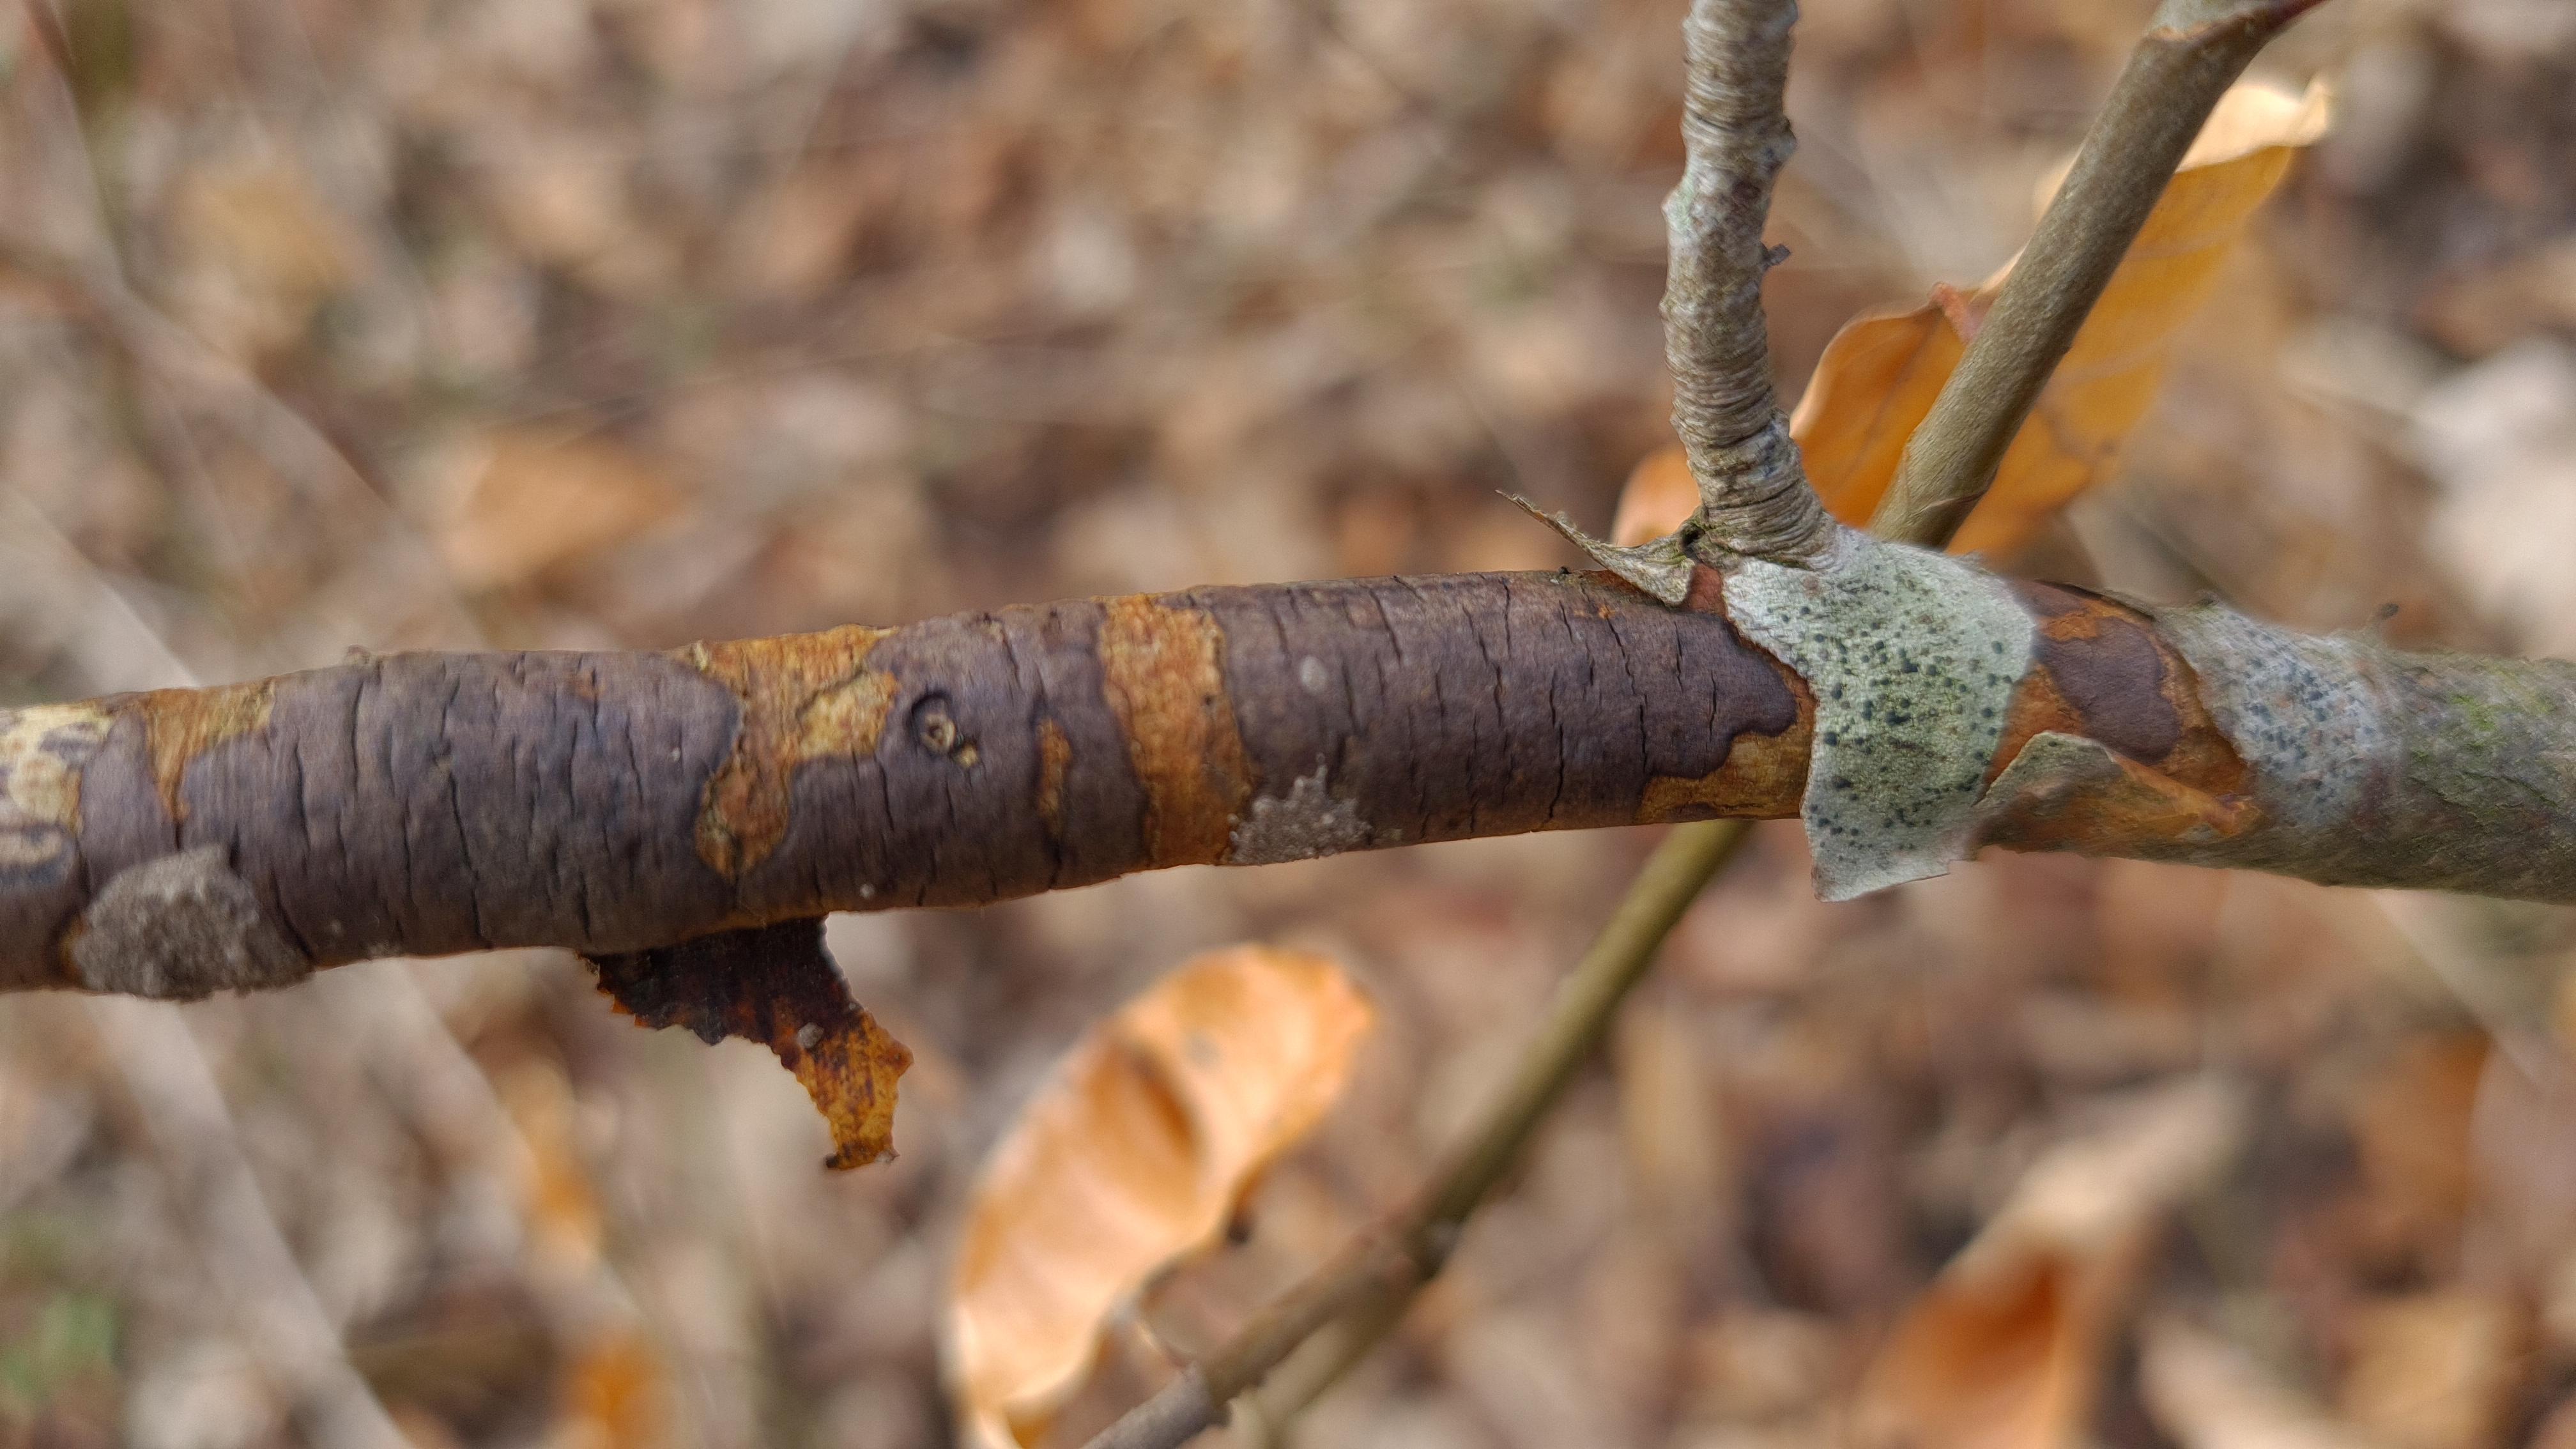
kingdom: Fungi
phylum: Ascomycota
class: Sordariomycetes
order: Xylariales
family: Diatrypaceae
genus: Diatrype
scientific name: Diatrype decorticata
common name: barksprænger-kulskorpe
